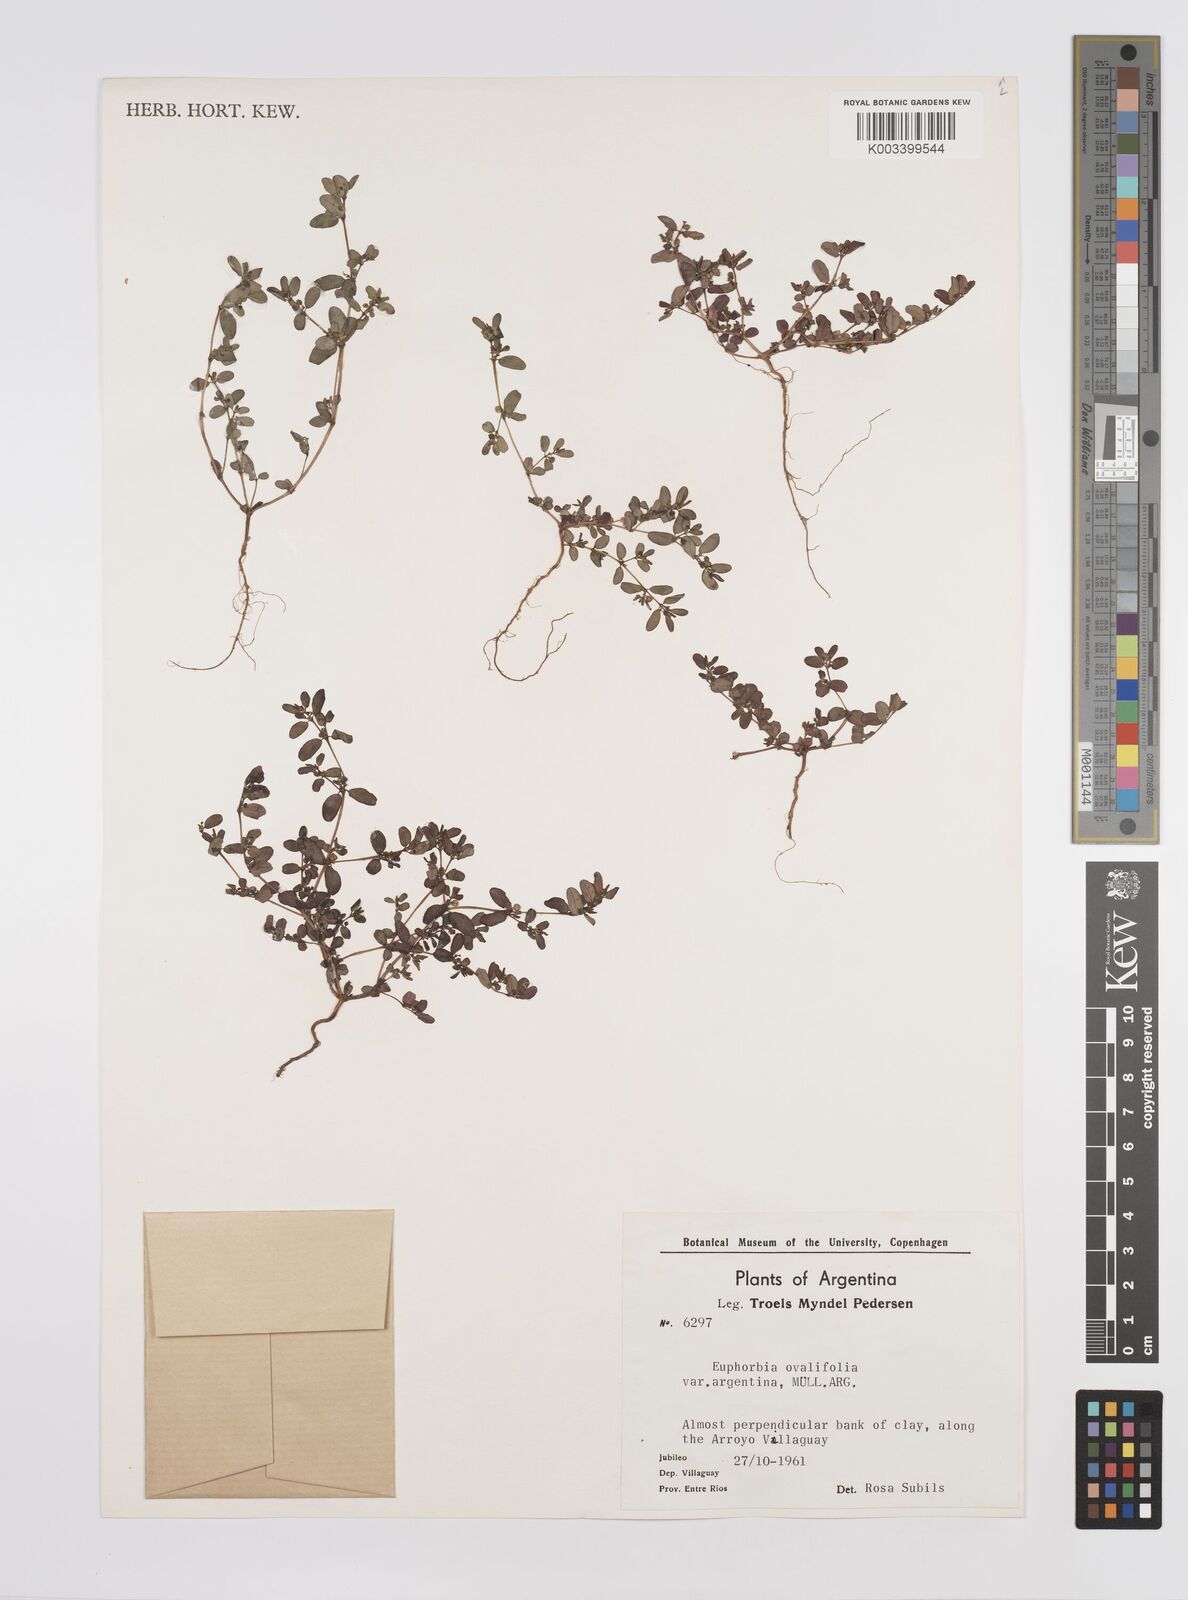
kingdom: Plantae
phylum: Tracheophyta
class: Magnoliopsida
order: Malpighiales
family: Euphorbiaceae
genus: Euphorbia
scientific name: Euphorbia klotzschii
